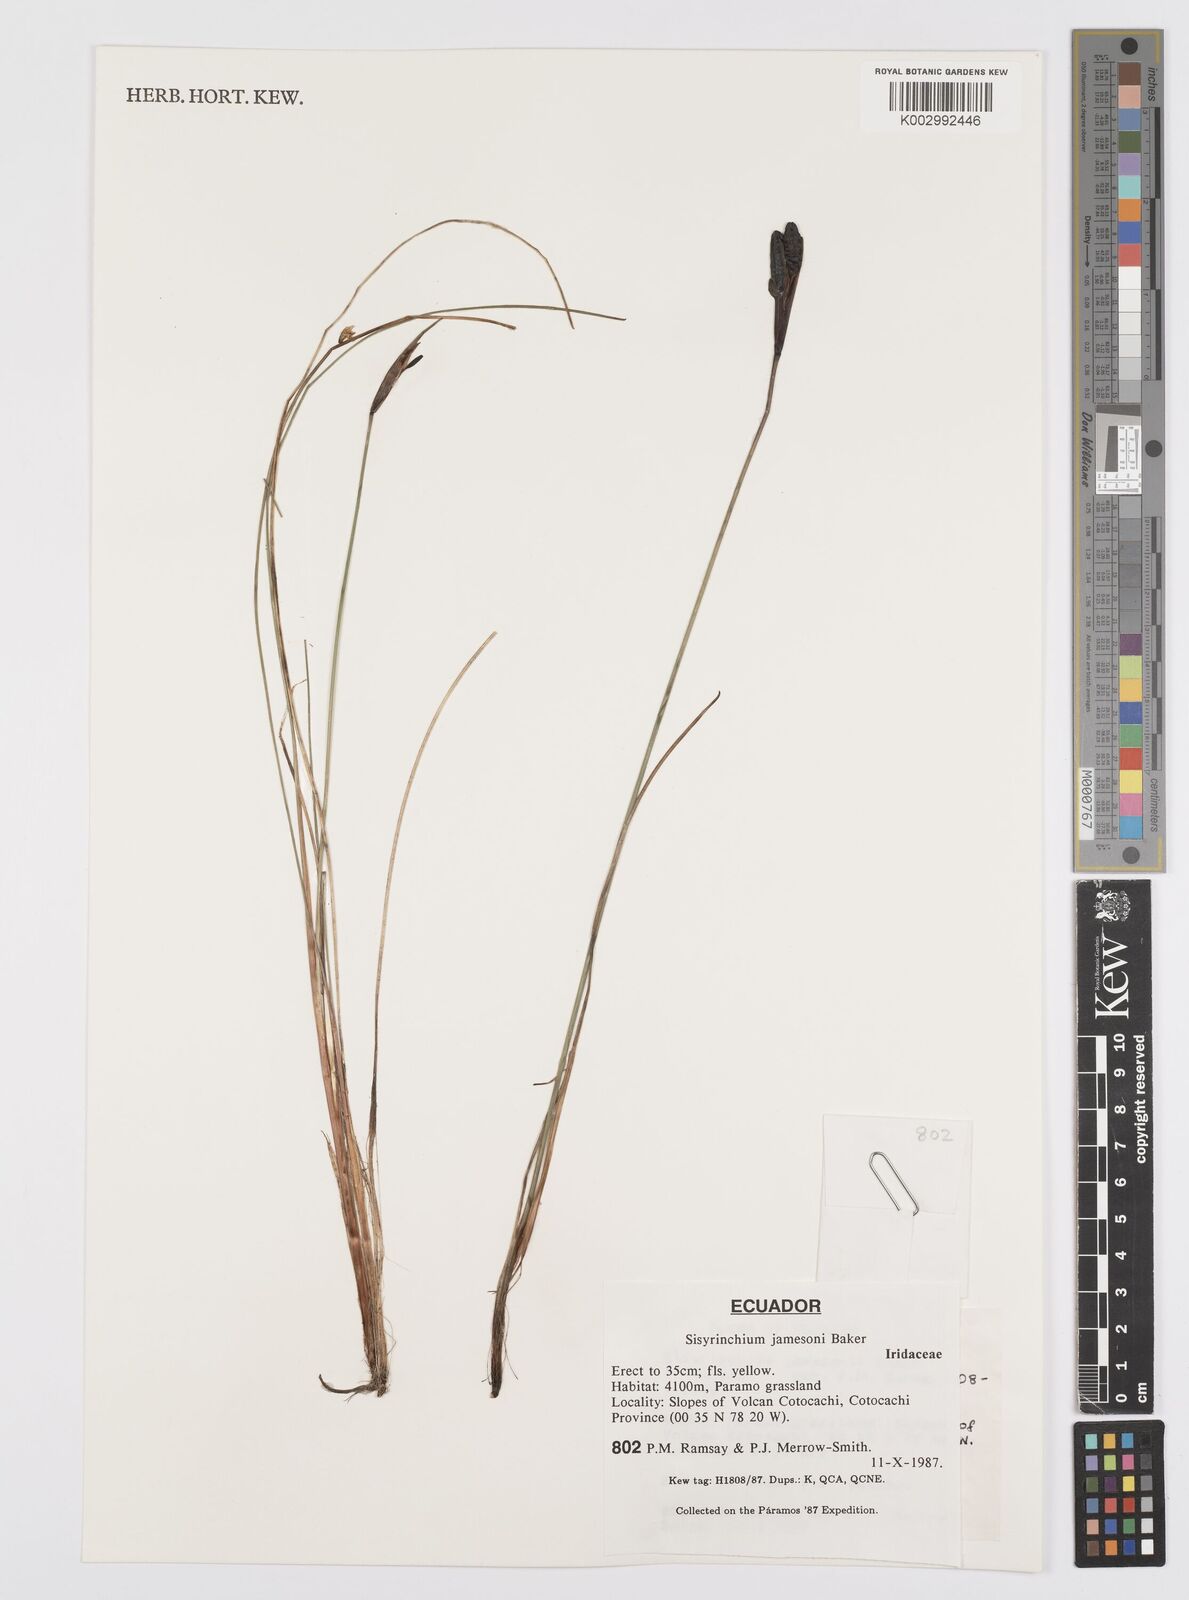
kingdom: Plantae
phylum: Tracheophyta
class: Liliopsida
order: Asparagales
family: Iridaceae
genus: Sisyrinchium
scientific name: Sisyrinchium jamesonii
